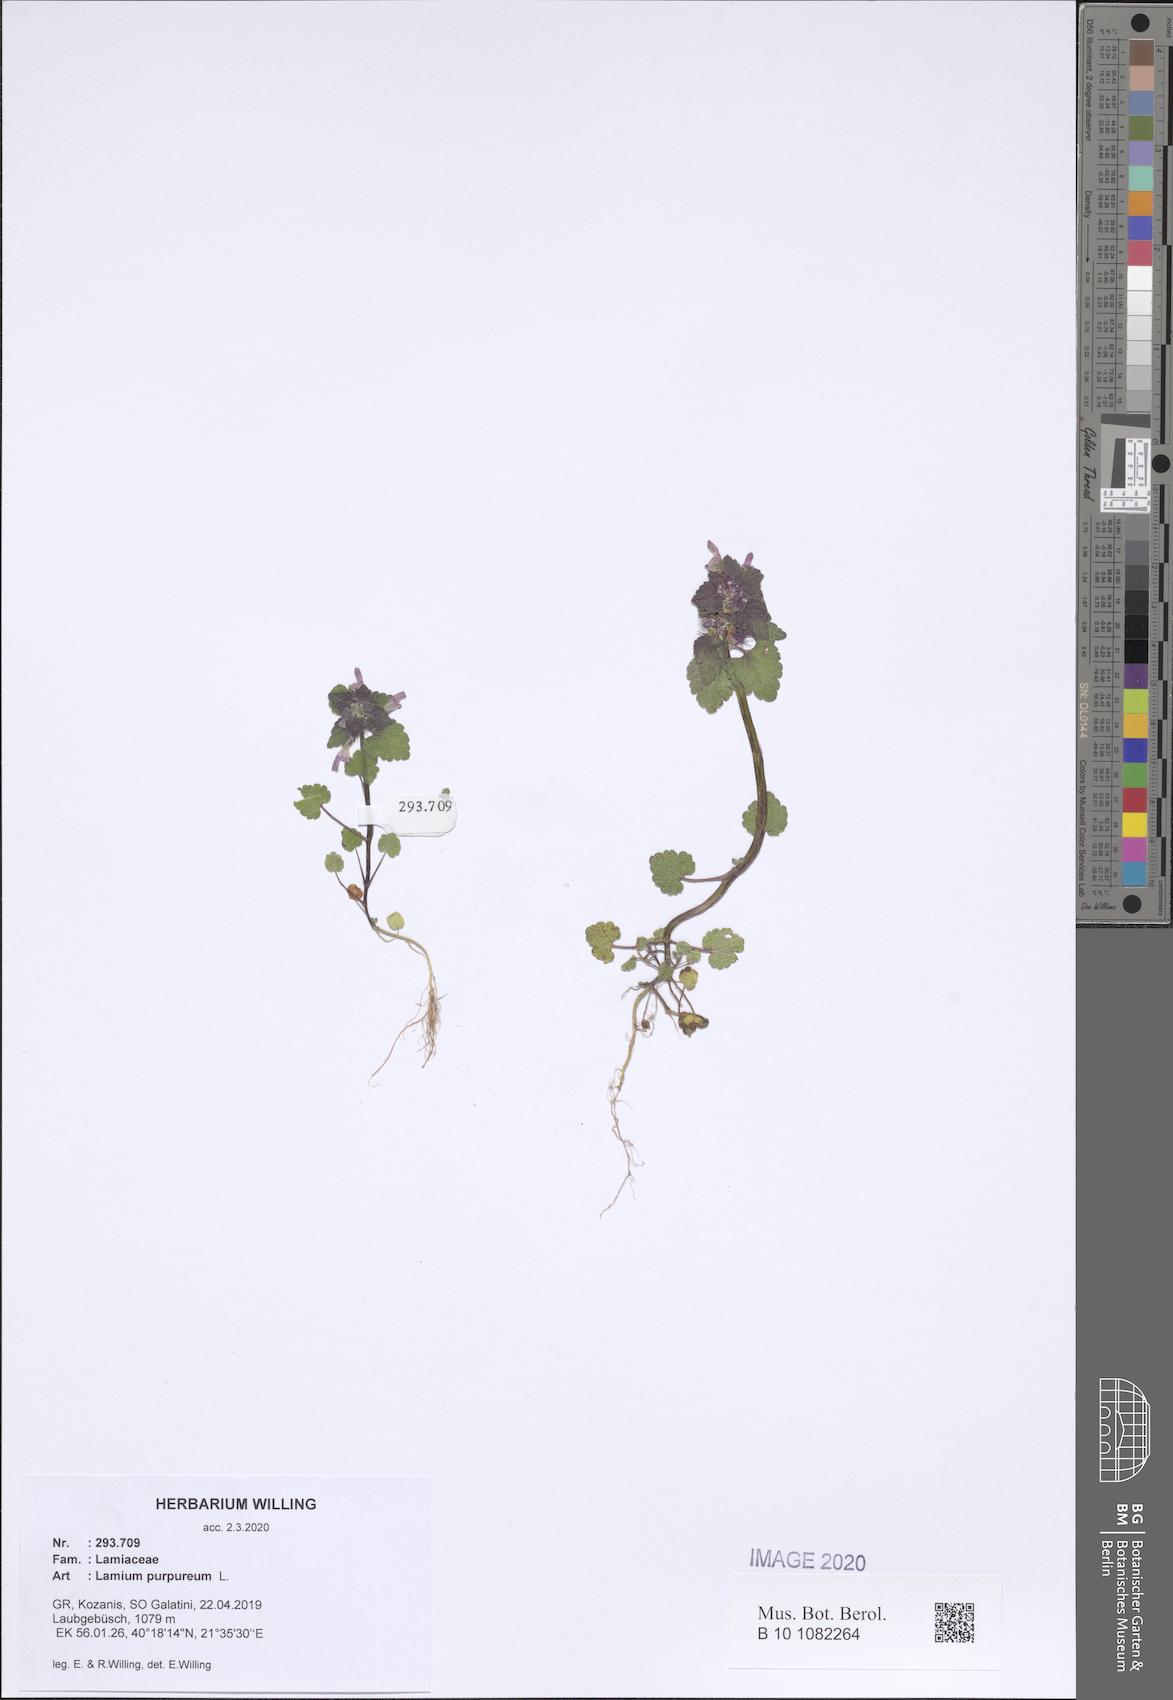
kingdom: Plantae
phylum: Tracheophyta
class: Magnoliopsida
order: Lamiales
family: Lamiaceae
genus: Lamium
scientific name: Lamium purpureum
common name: Red dead-nettle
